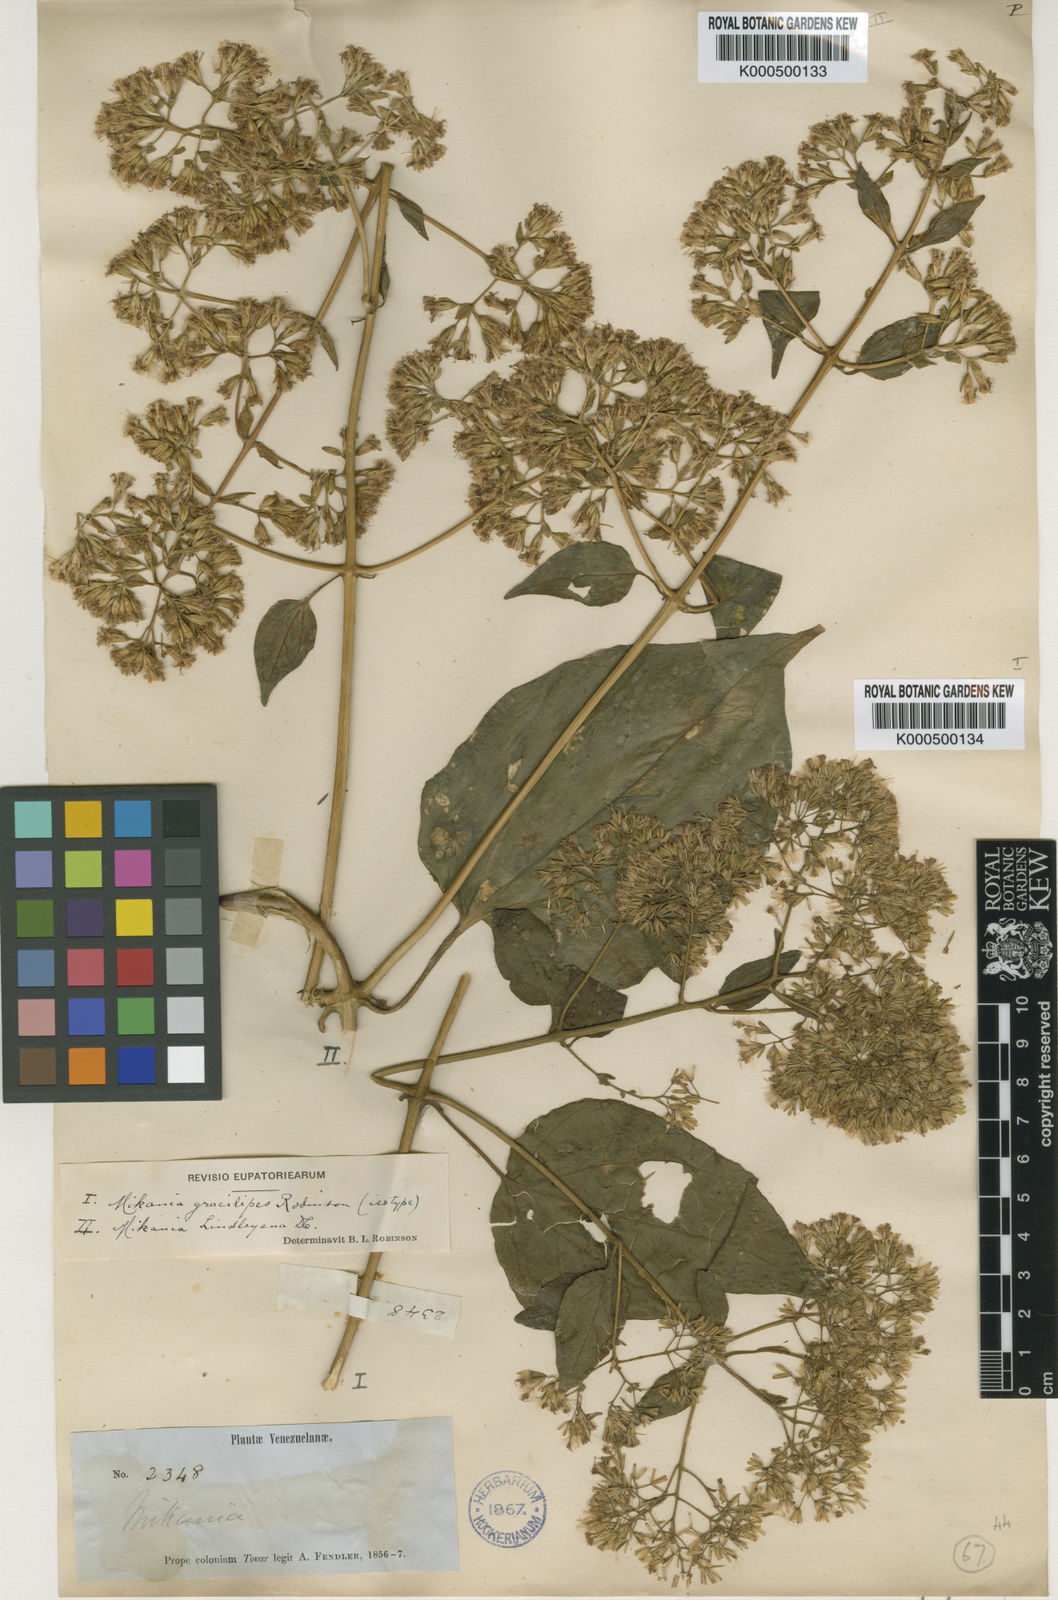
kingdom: Plantae
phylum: Tracheophyta
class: Magnoliopsida
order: Asterales
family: Asteraceae
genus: Mikania
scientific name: Mikania gracilipes
